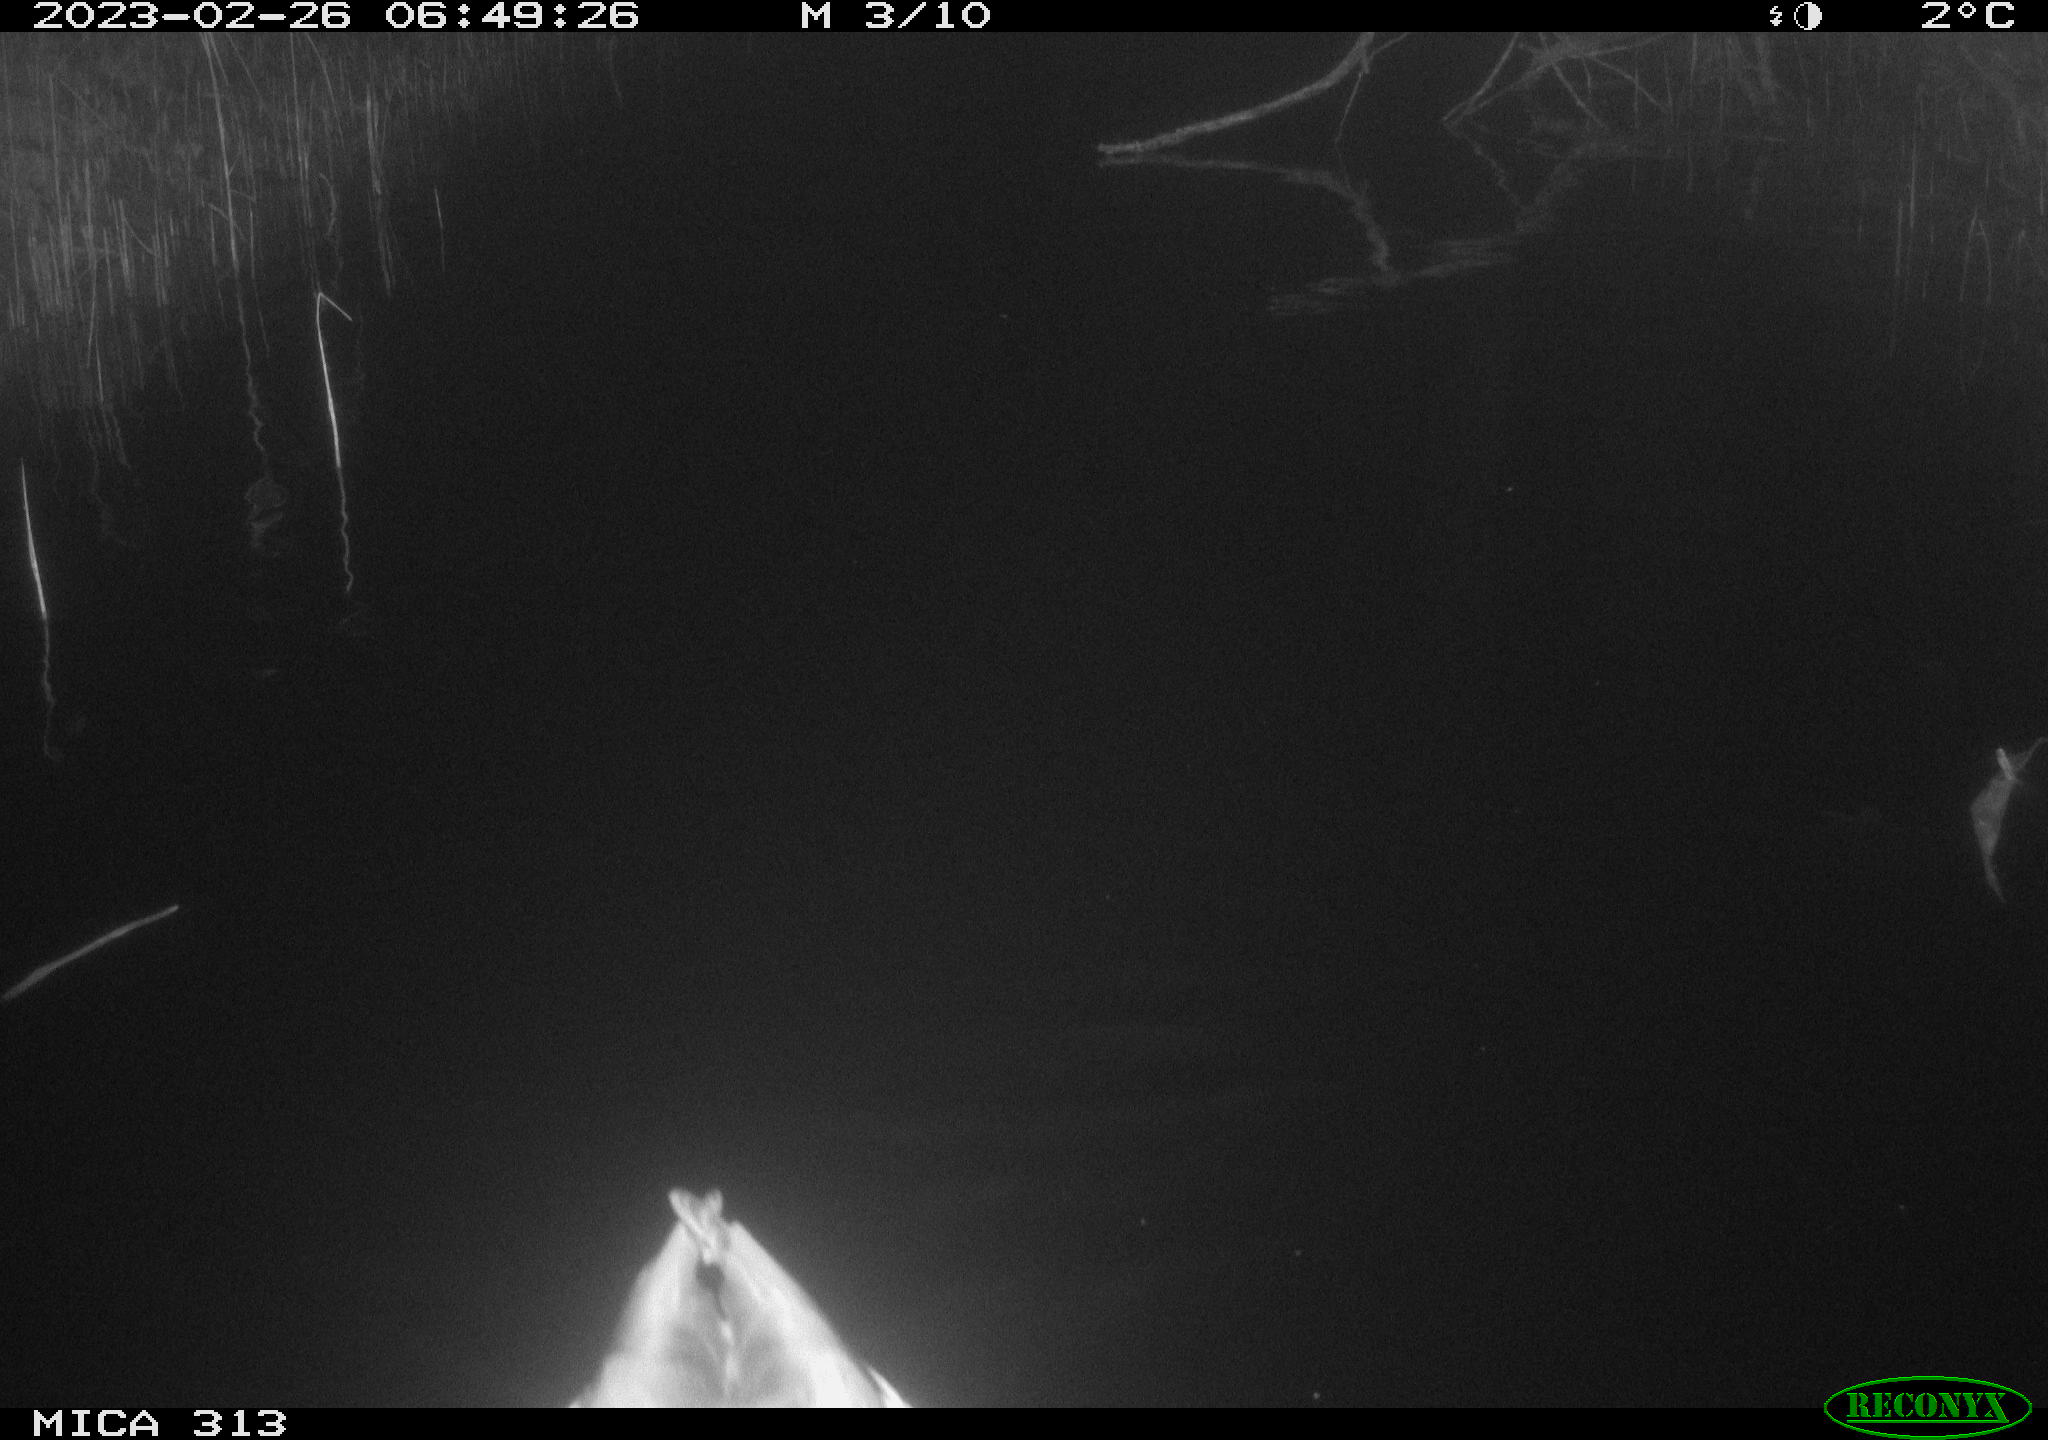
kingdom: Animalia
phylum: Chordata
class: Aves
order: Anseriformes
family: Anatidae
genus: Anas
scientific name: Anas
